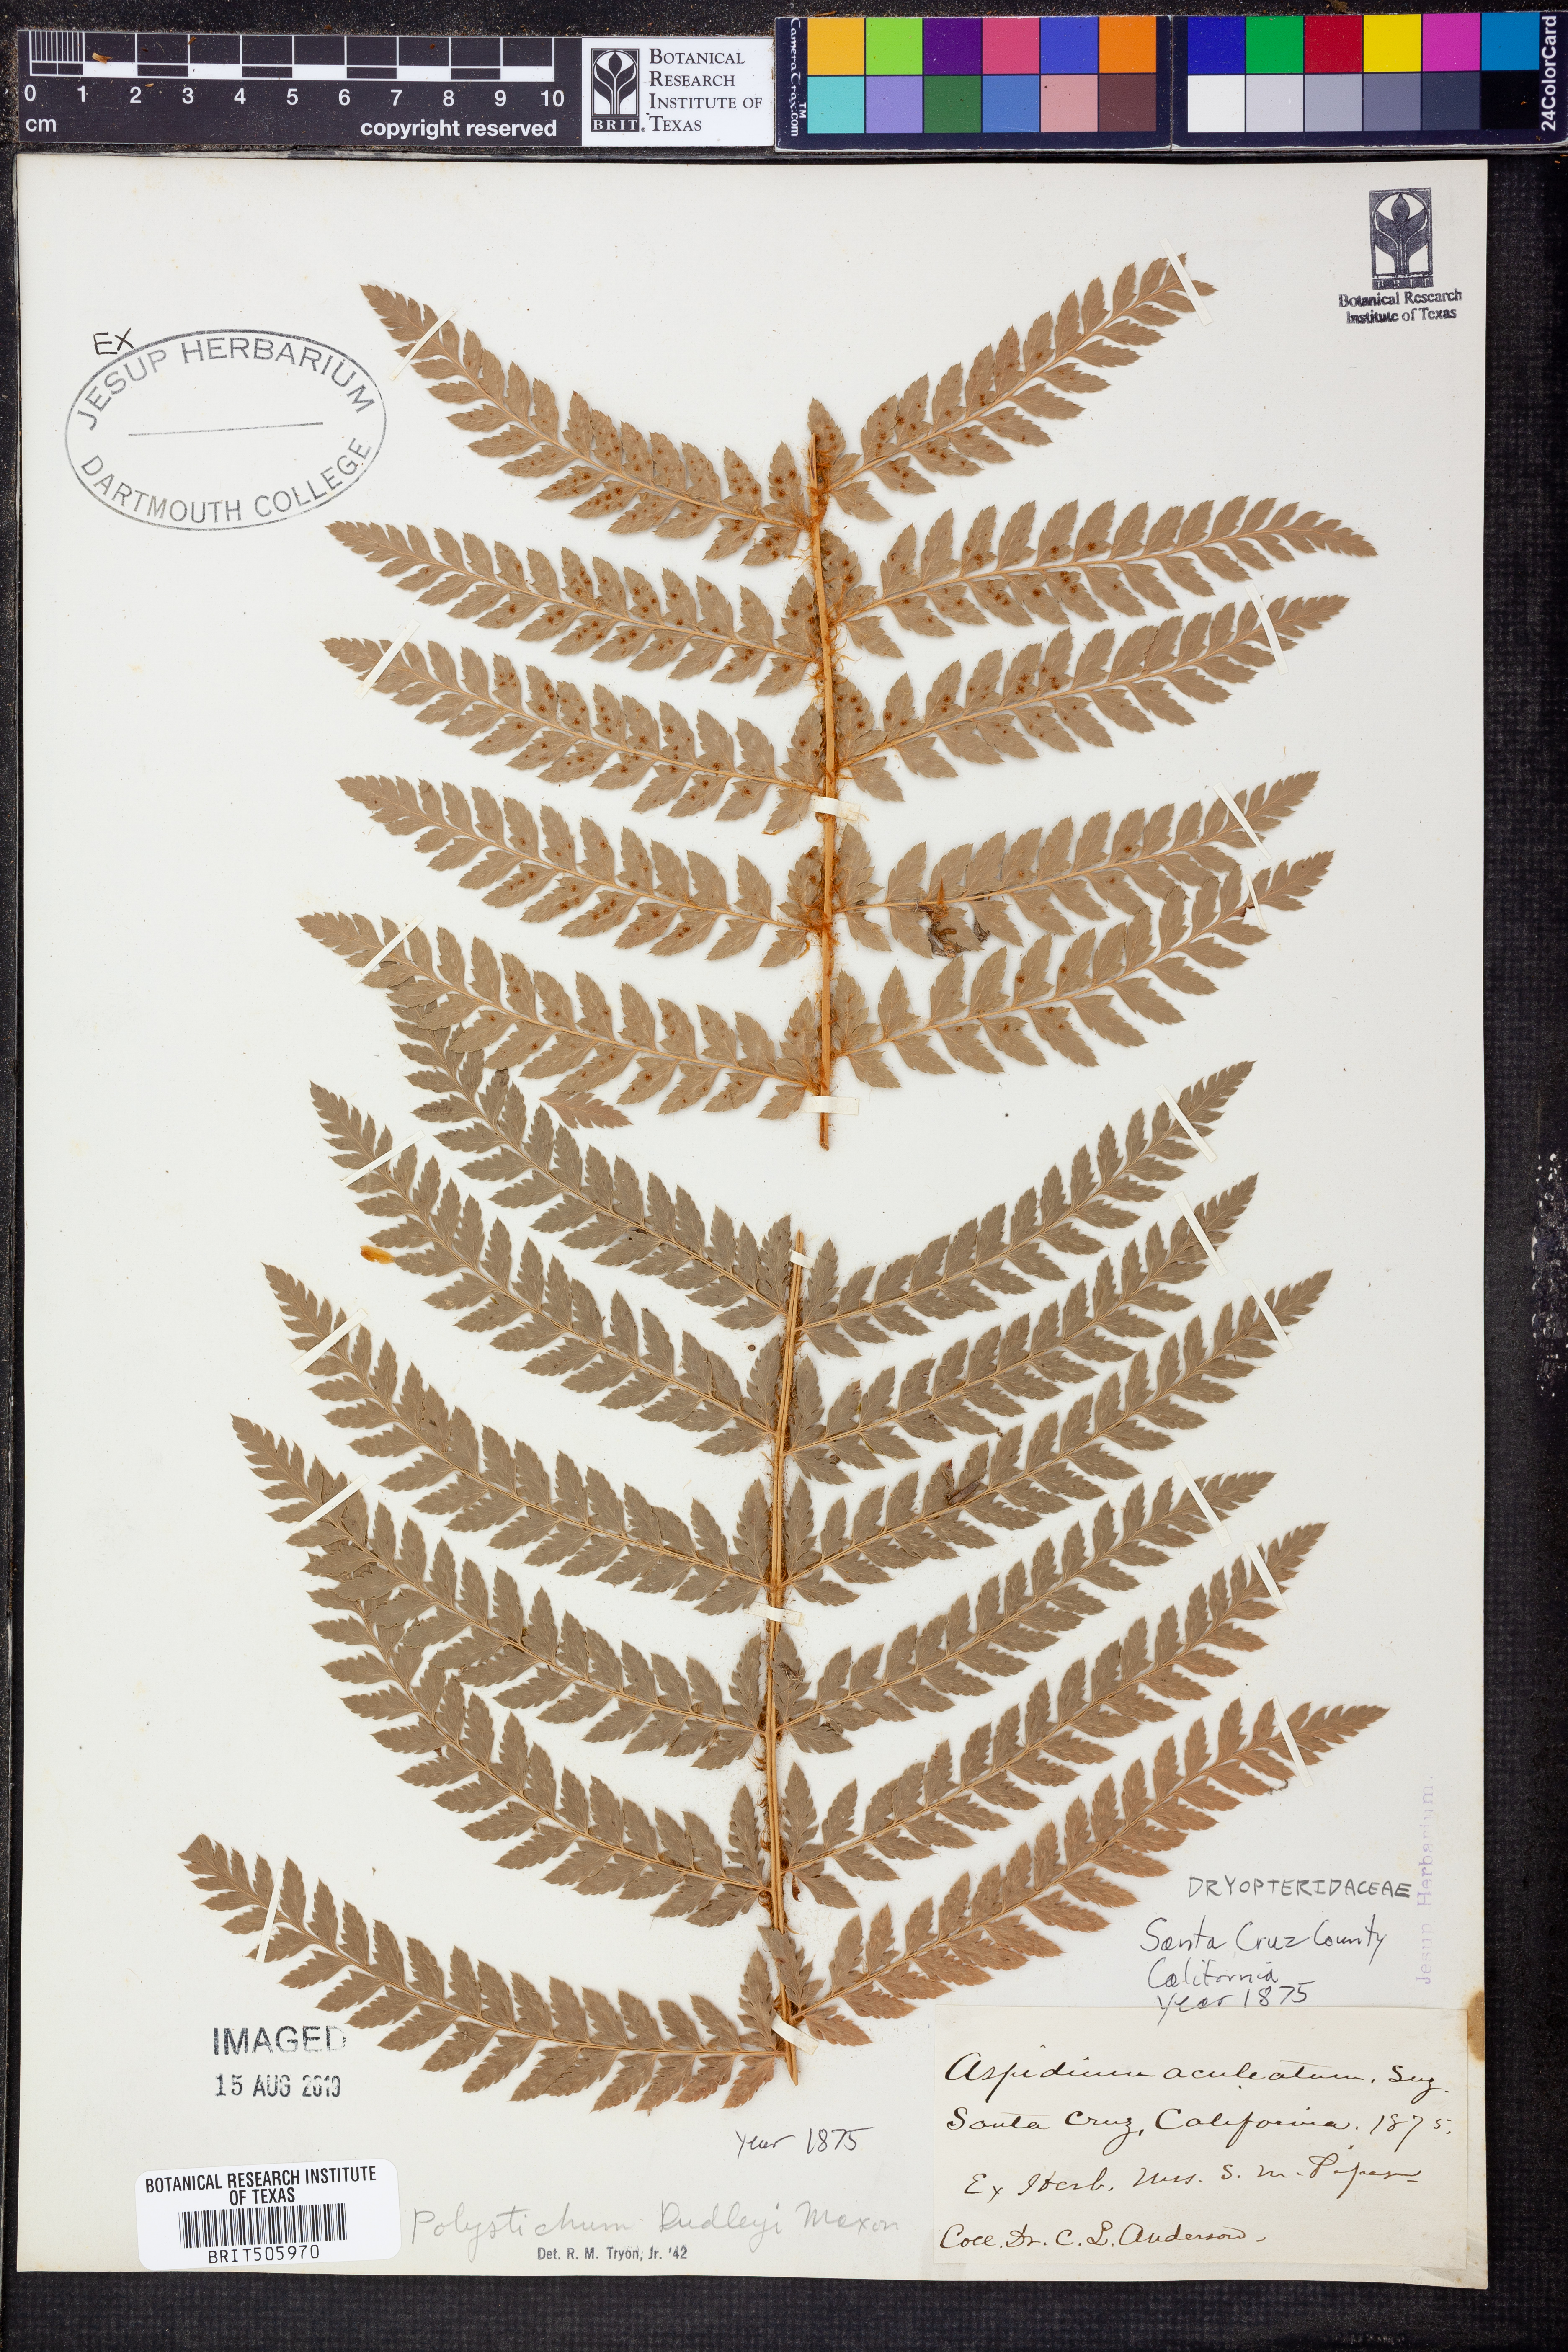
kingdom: Plantae
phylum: Tracheophyta
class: Polypodiopsida
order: Polypodiales
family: Dryopteridaceae
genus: Polystichum
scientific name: Polystichum dudleyi
